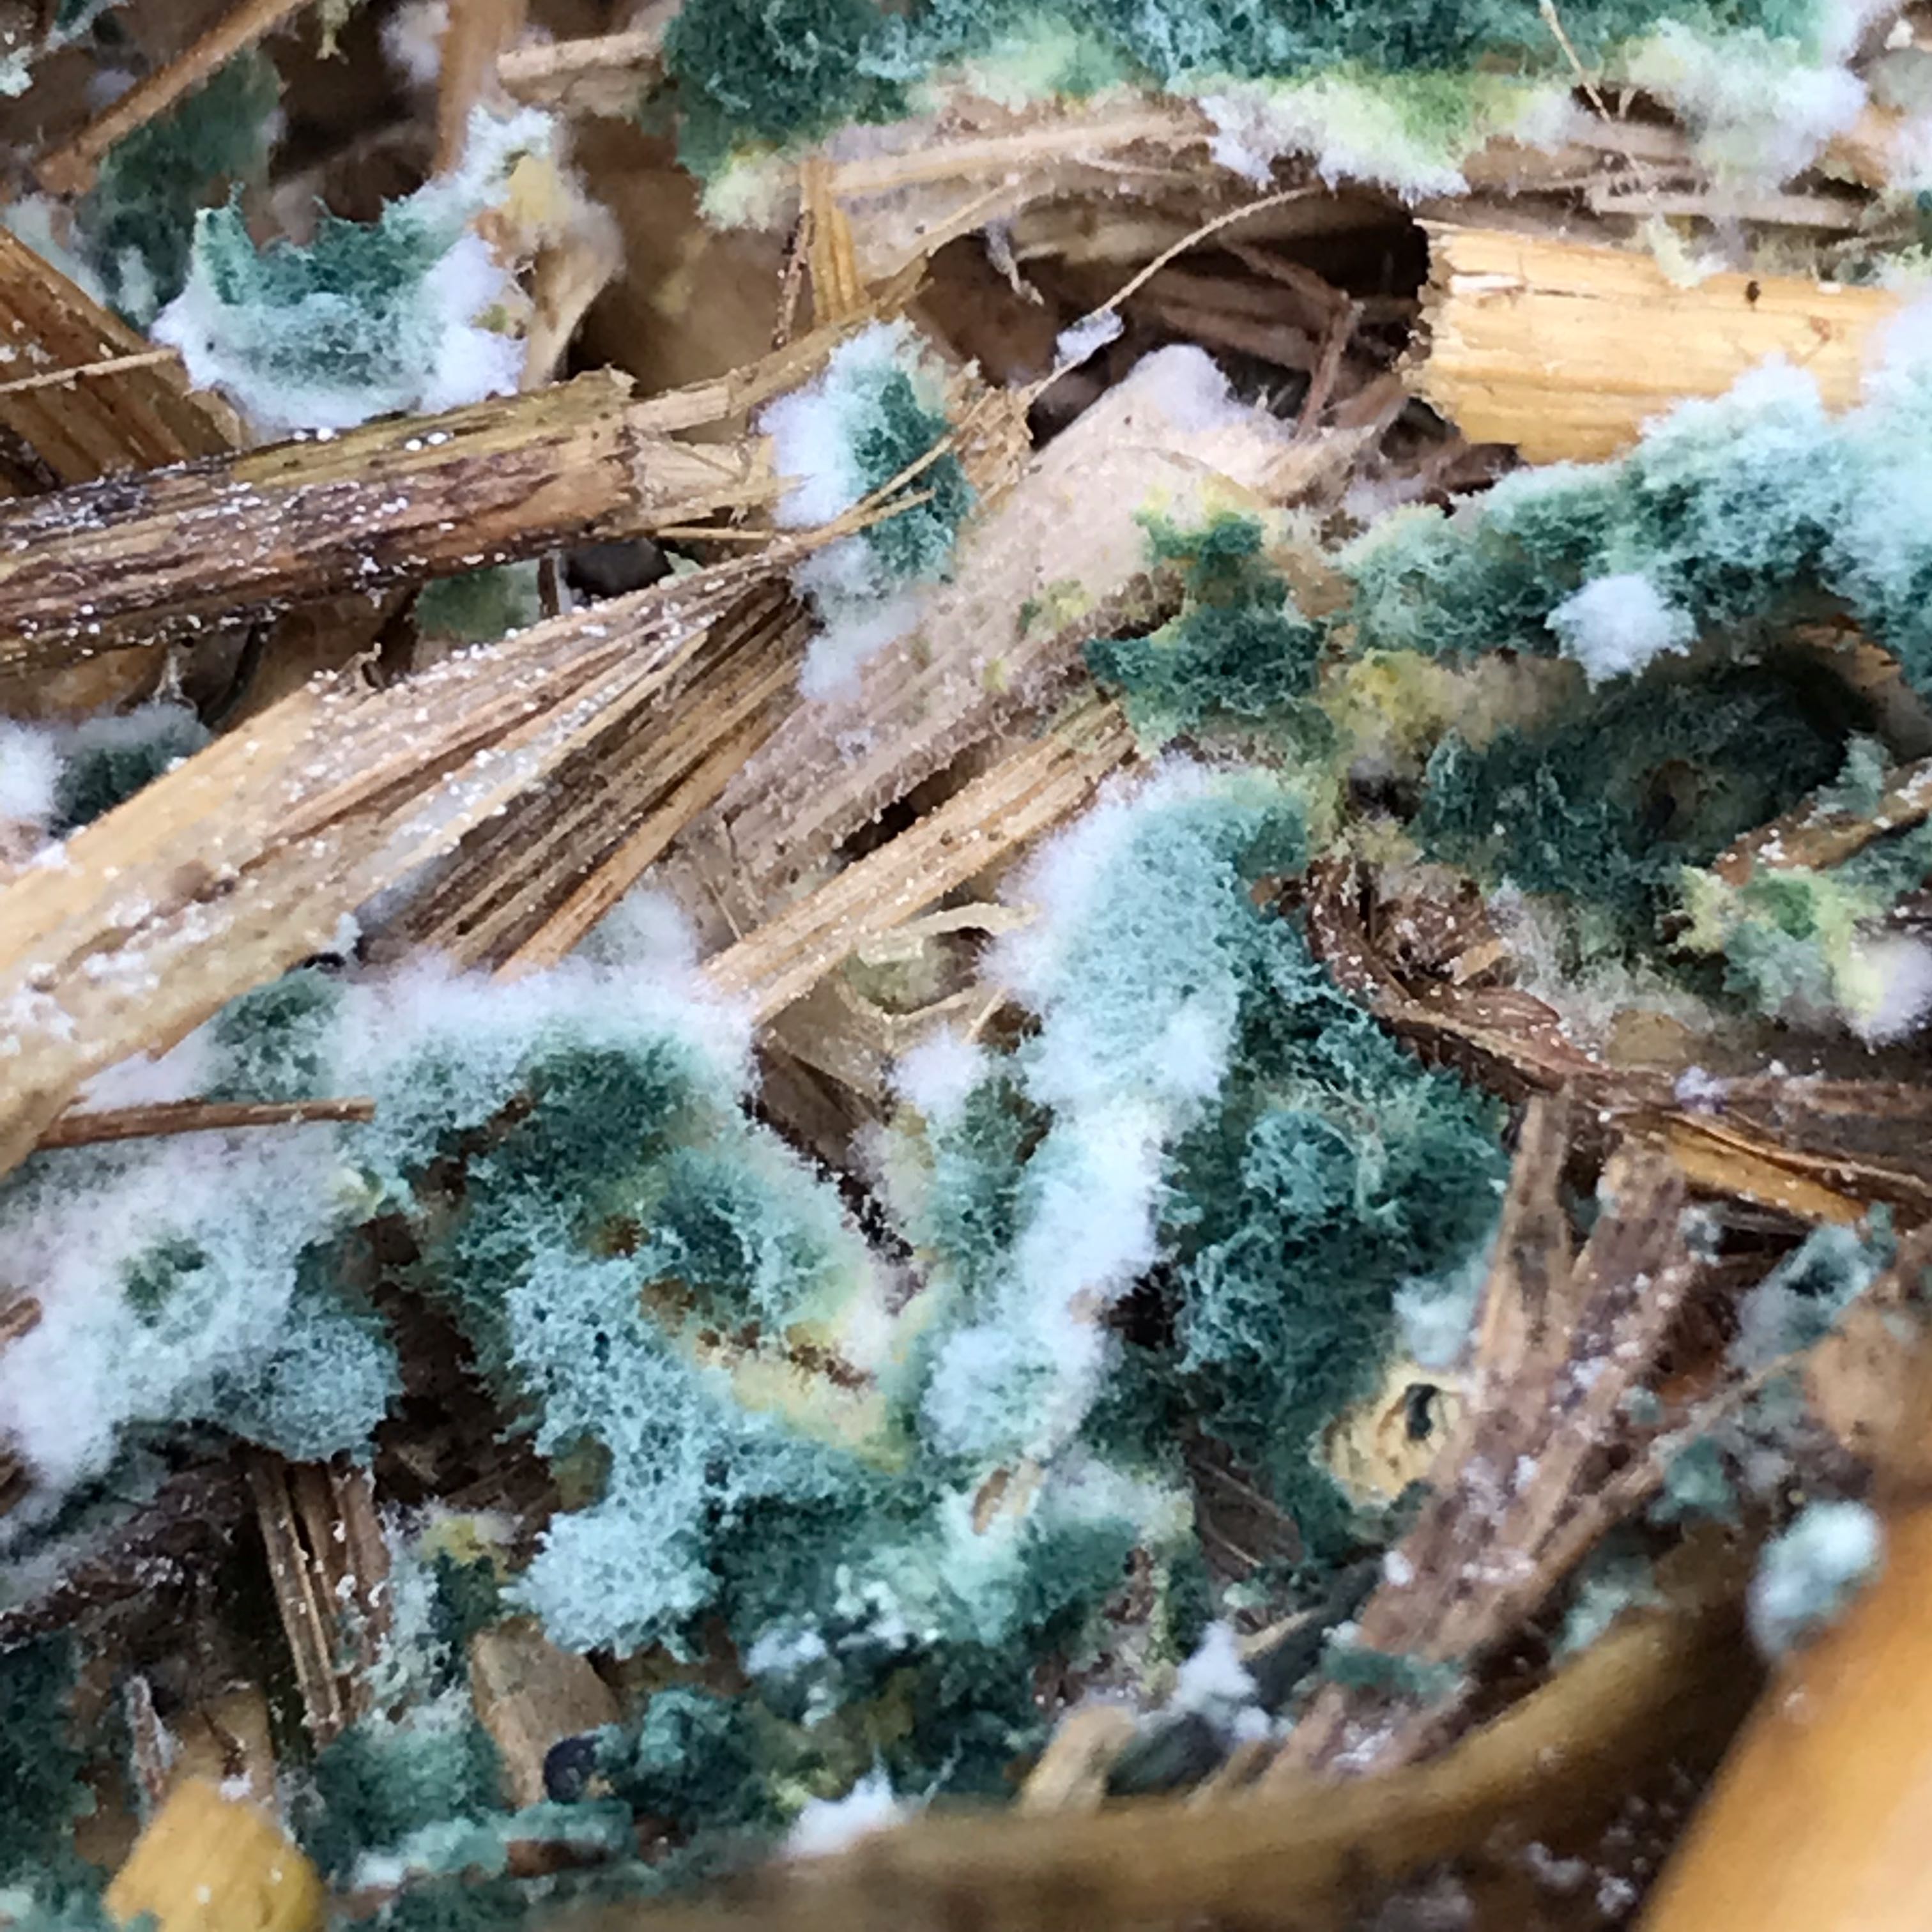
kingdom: Fungi
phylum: Ascomycota
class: Sordariomycetes
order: Hypocreales
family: Hypocreaceae
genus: Trichoderma
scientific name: Trichoderma
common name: kødkerne
